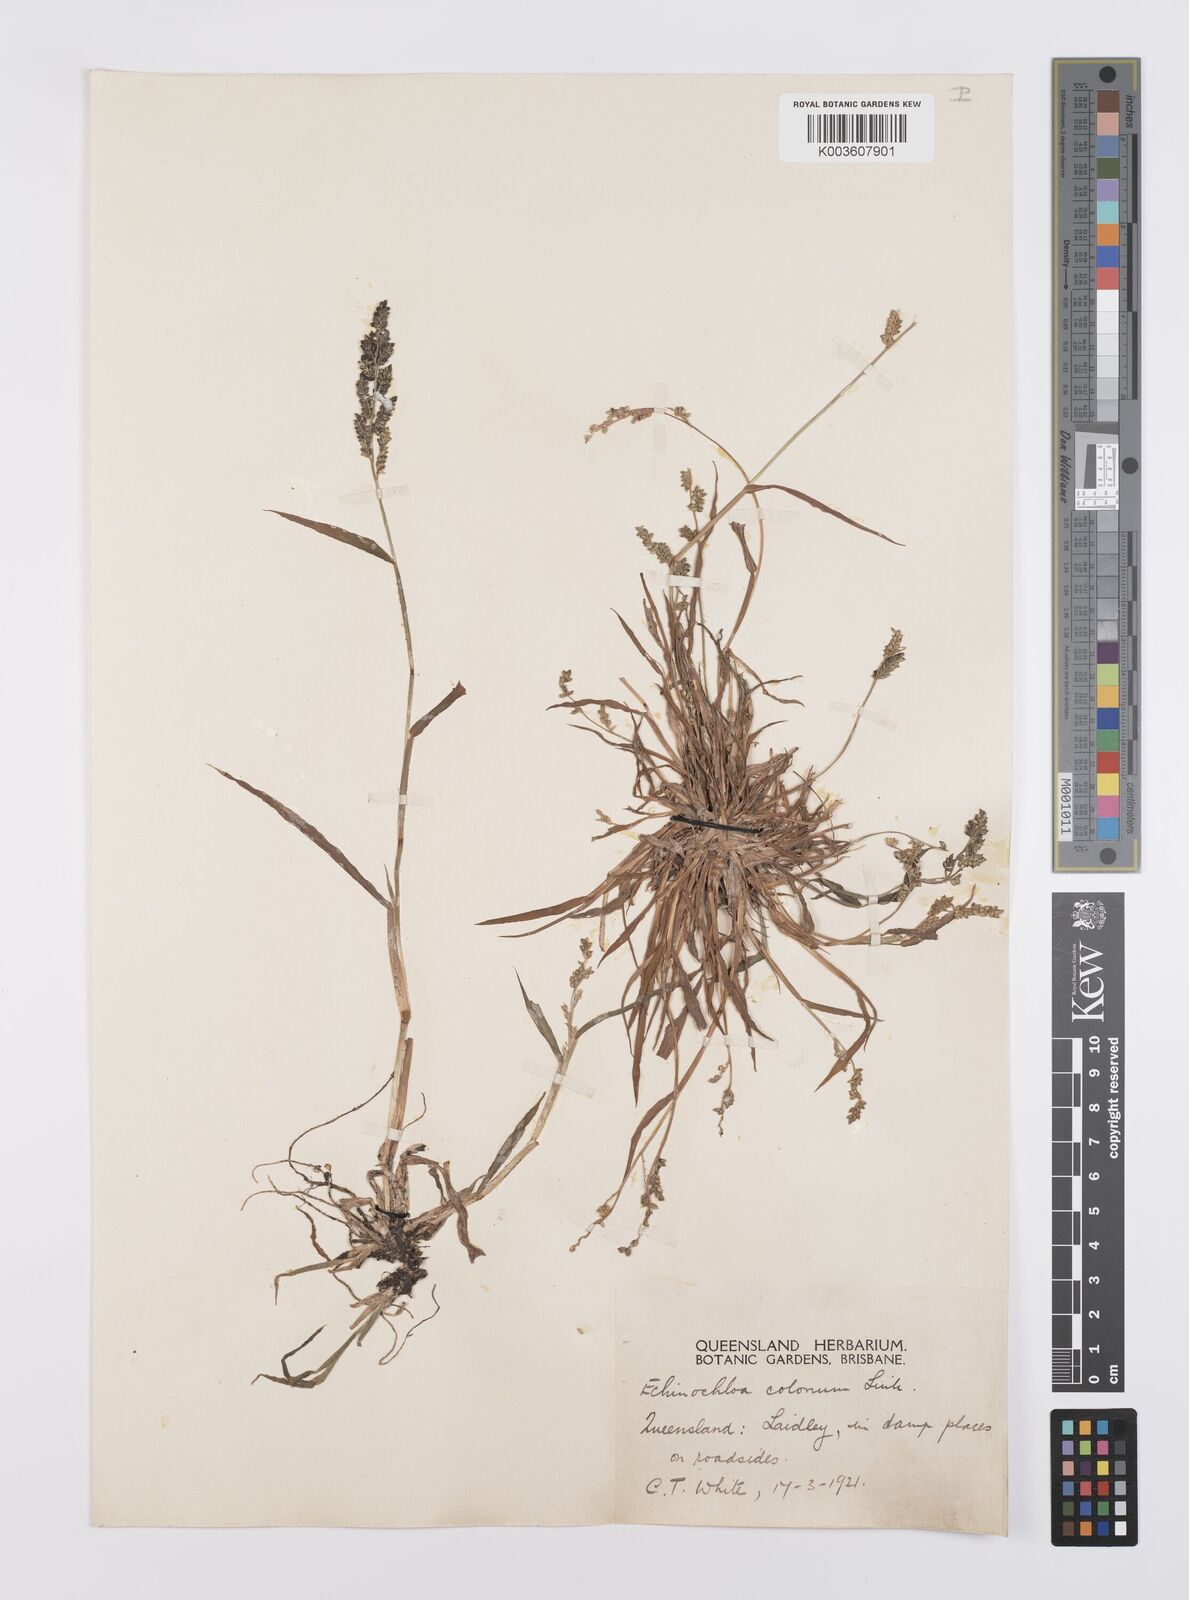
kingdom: Plantae
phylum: Tracheophyta
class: Liliopsida
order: Poales
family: Poaceae
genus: Echinochloa
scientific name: Echinochloa colonum
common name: Jungle rice
